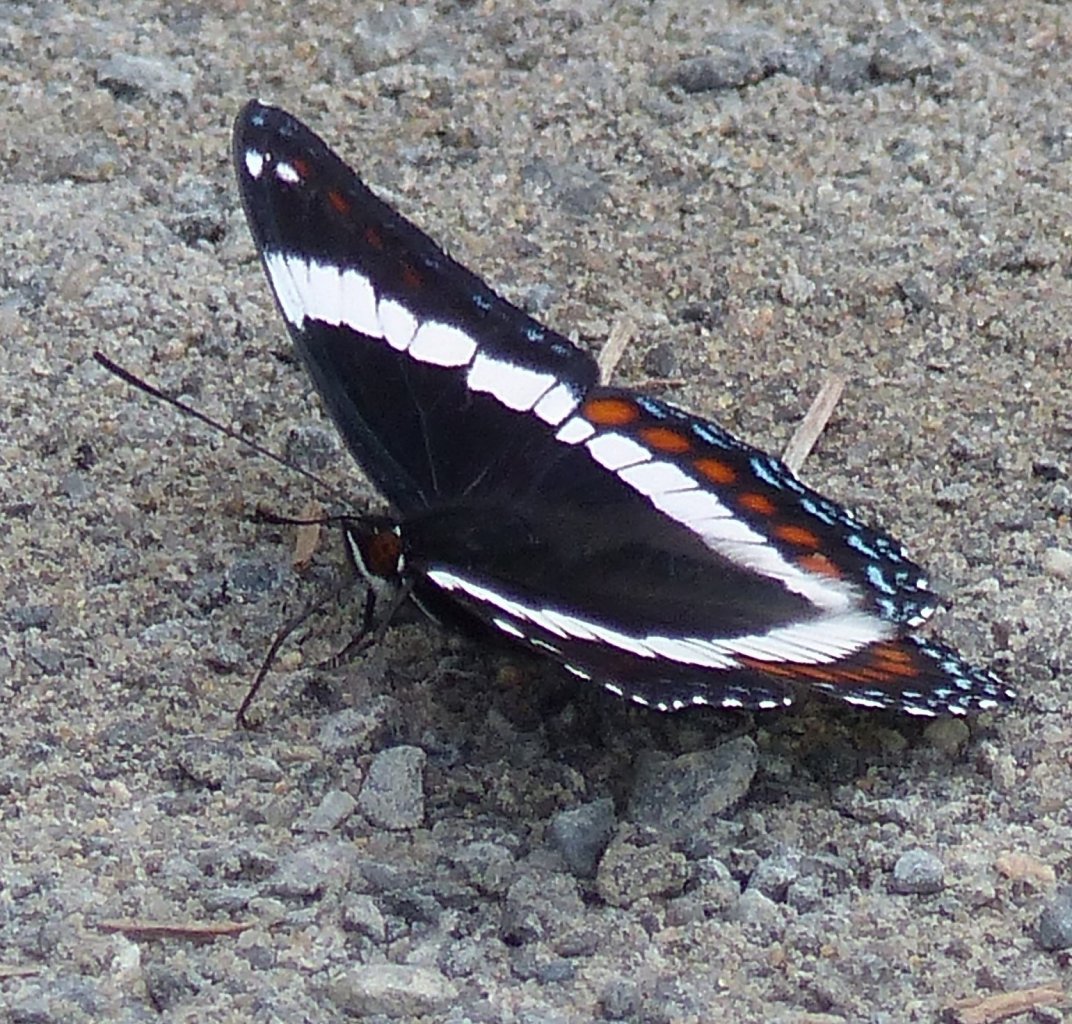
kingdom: Animalia
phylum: Arthropoda
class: Insecta
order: Lepidoptera
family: Nymphalidae
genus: Limenitis
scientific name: Limenitis arthemis
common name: Red-spotted Admiral
